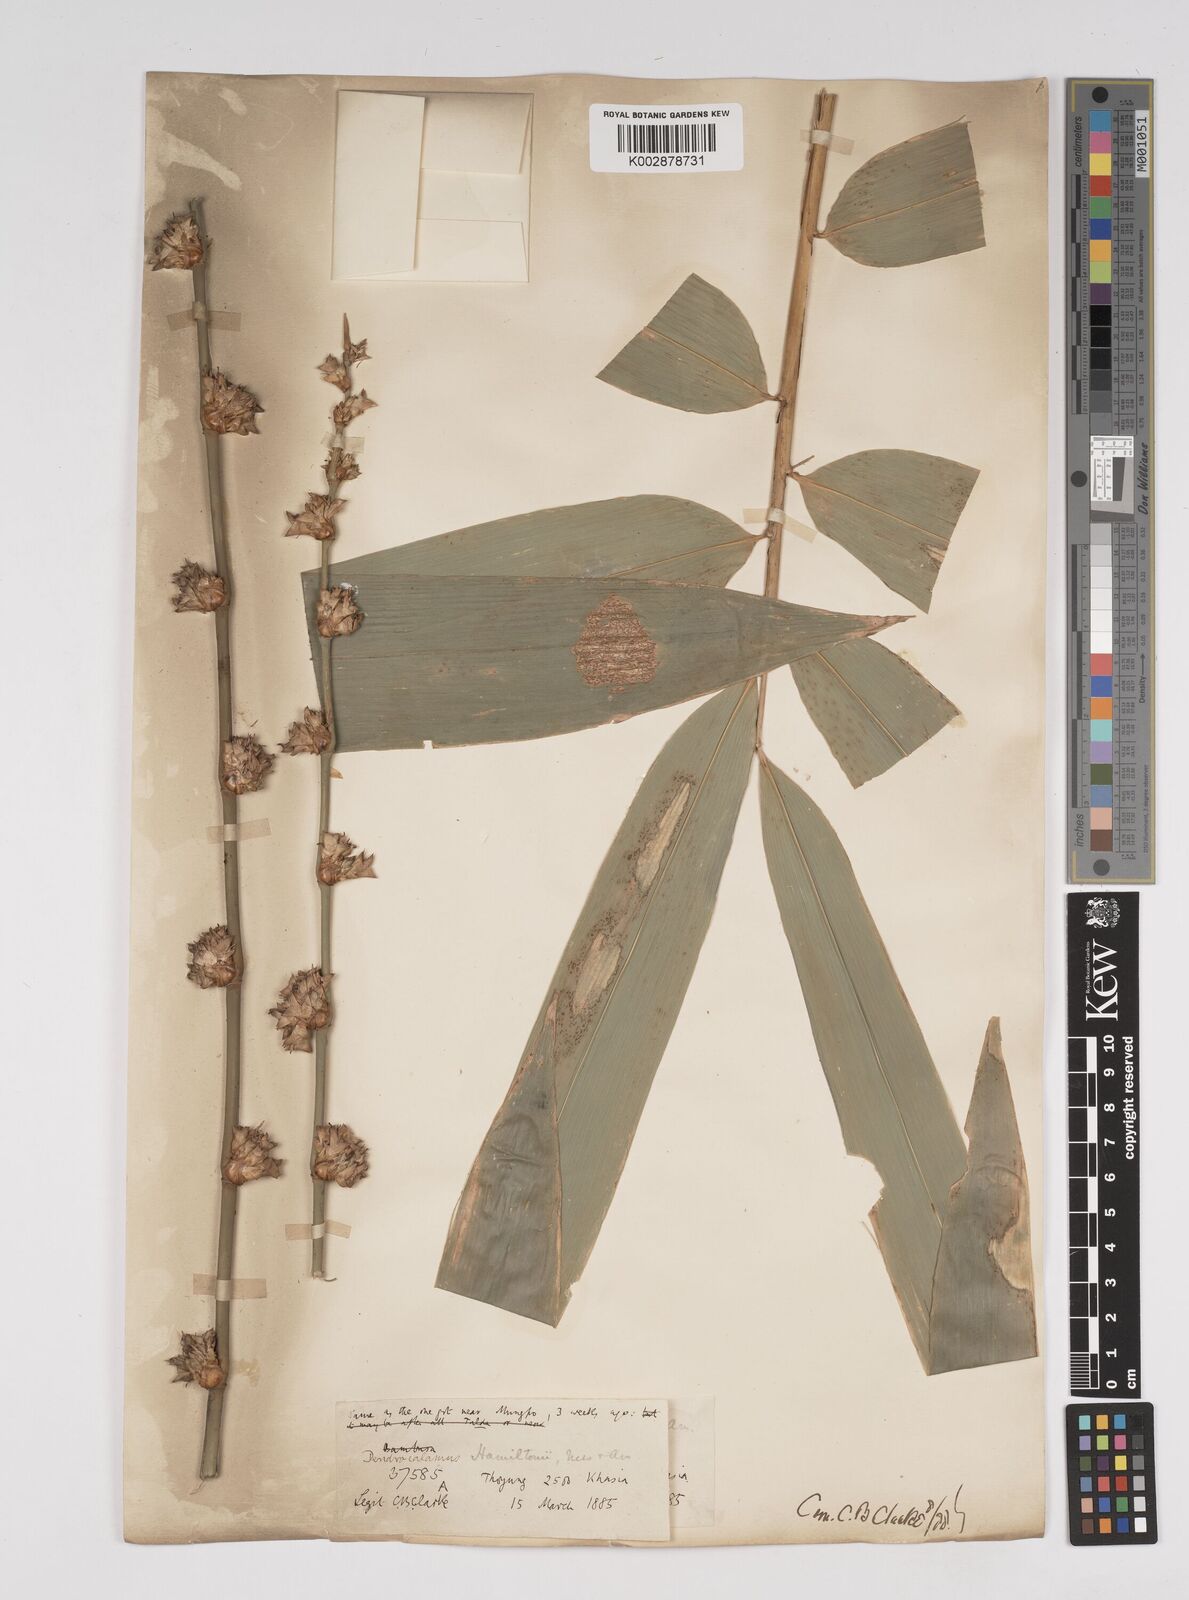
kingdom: Plantae
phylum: Tracheophyta
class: Liliopsida
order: Poales
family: Poaceae
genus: Dendrocalamus
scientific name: Dendrocalamus hamiltonii
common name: Tama bamboo
